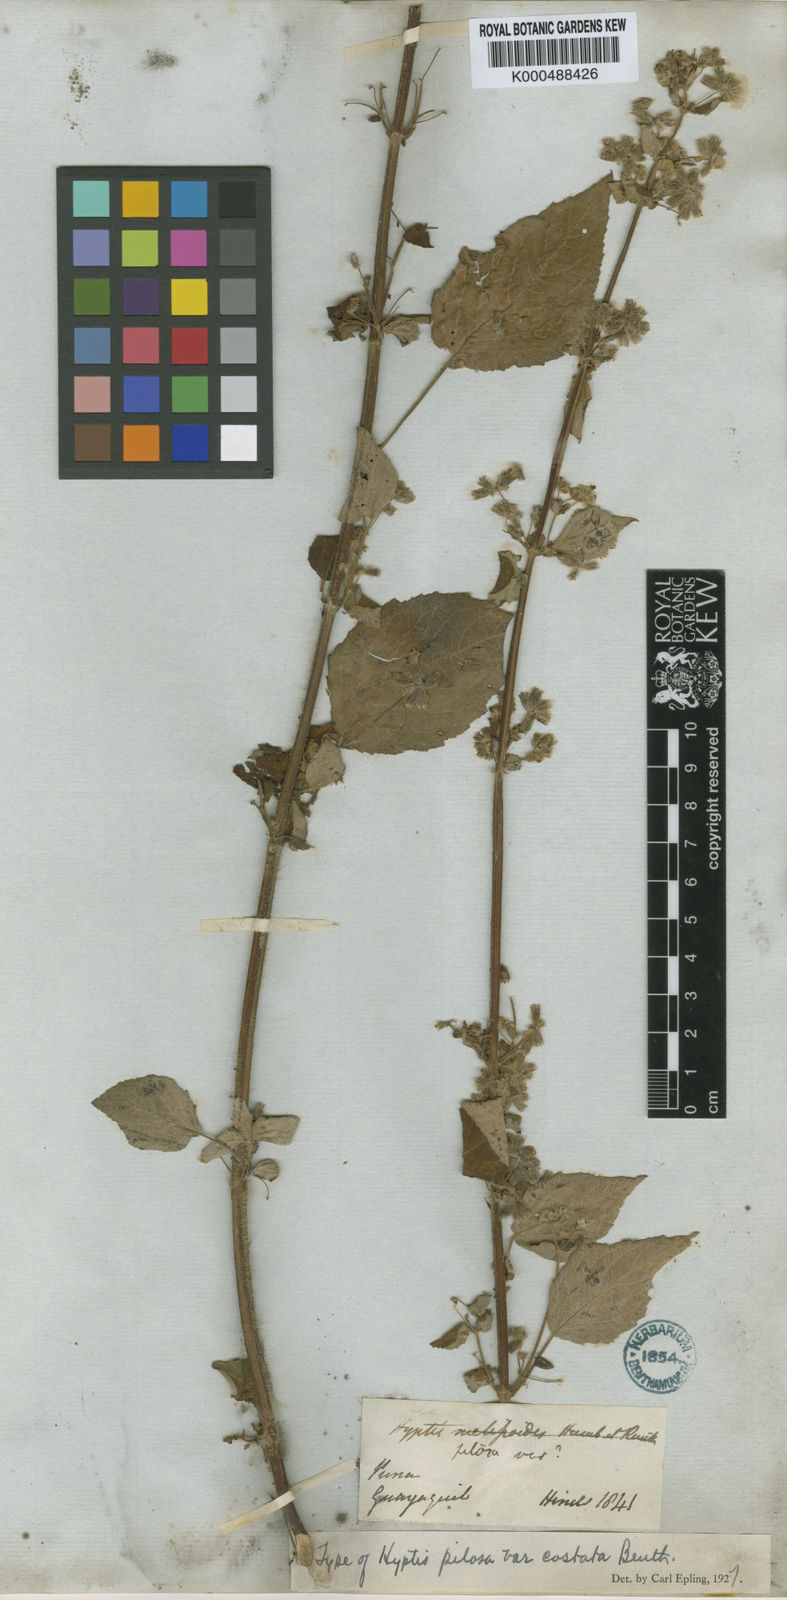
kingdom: Plantae
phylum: Tracheophyta
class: Magnoliopsida
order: Lamiales
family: Lamiaceae
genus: Mesosphaerum
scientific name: Mesosphaerum pilosum
